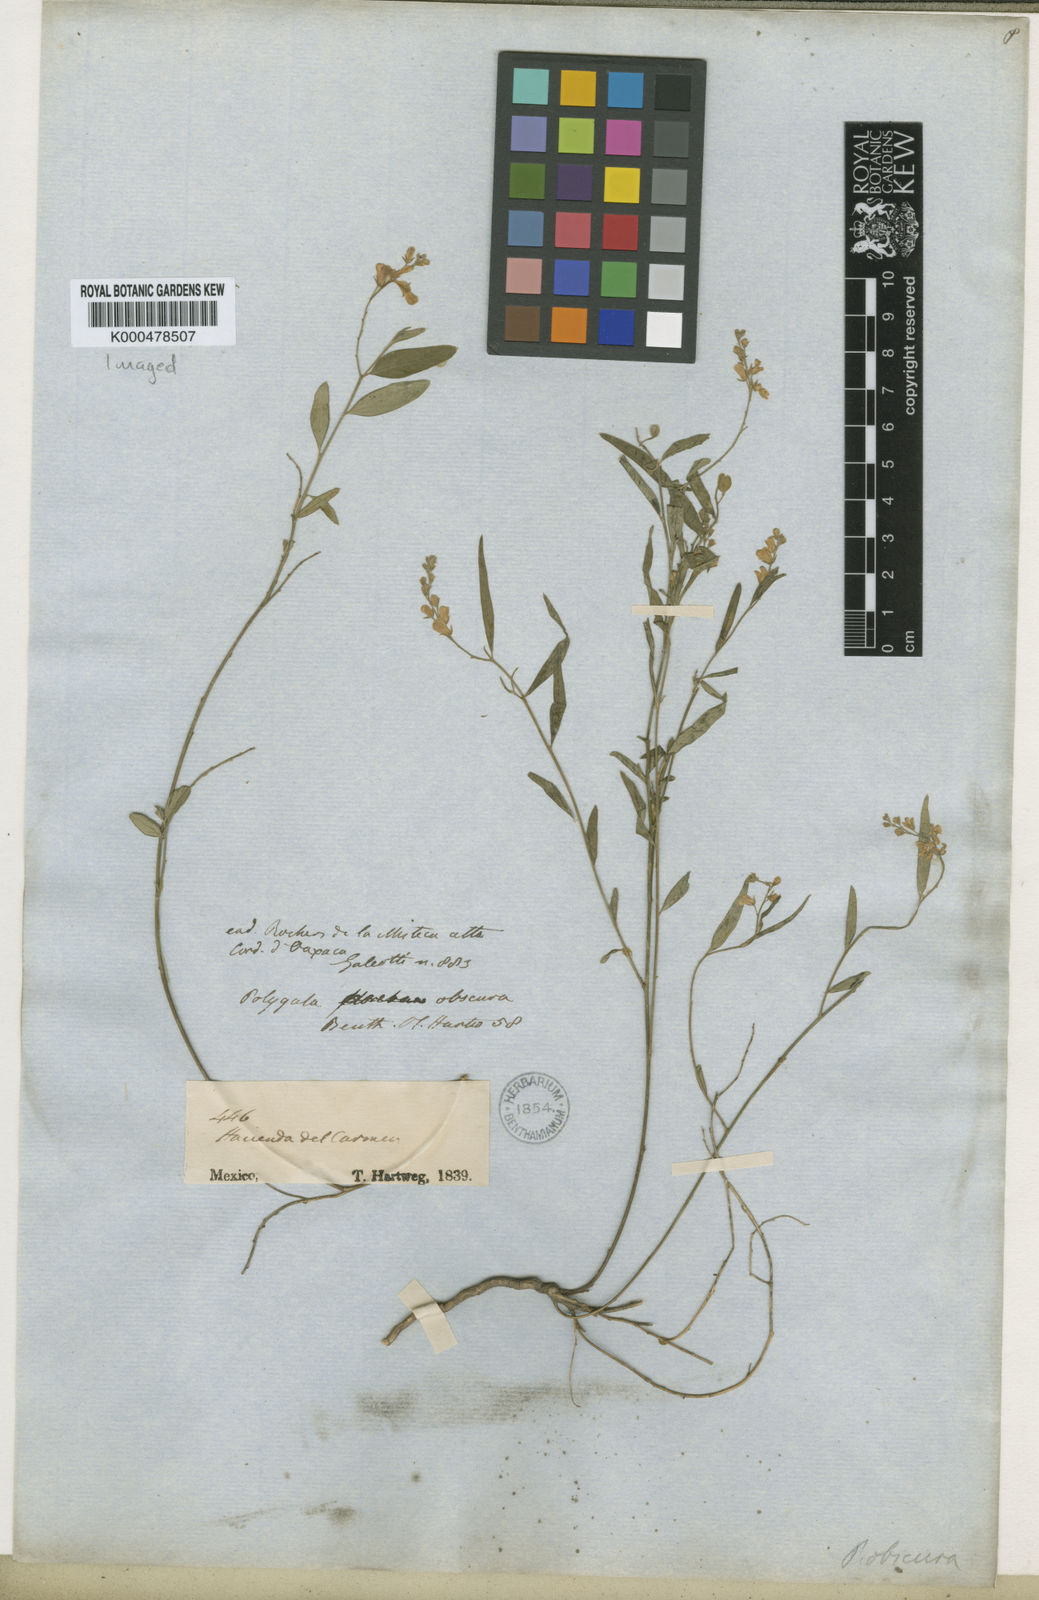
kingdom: Plantae
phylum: Tracheophyta
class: Magnoliopsida
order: Fabales
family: Polygalaceae
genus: Hebecarpa
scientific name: Hebecarpa obscura
